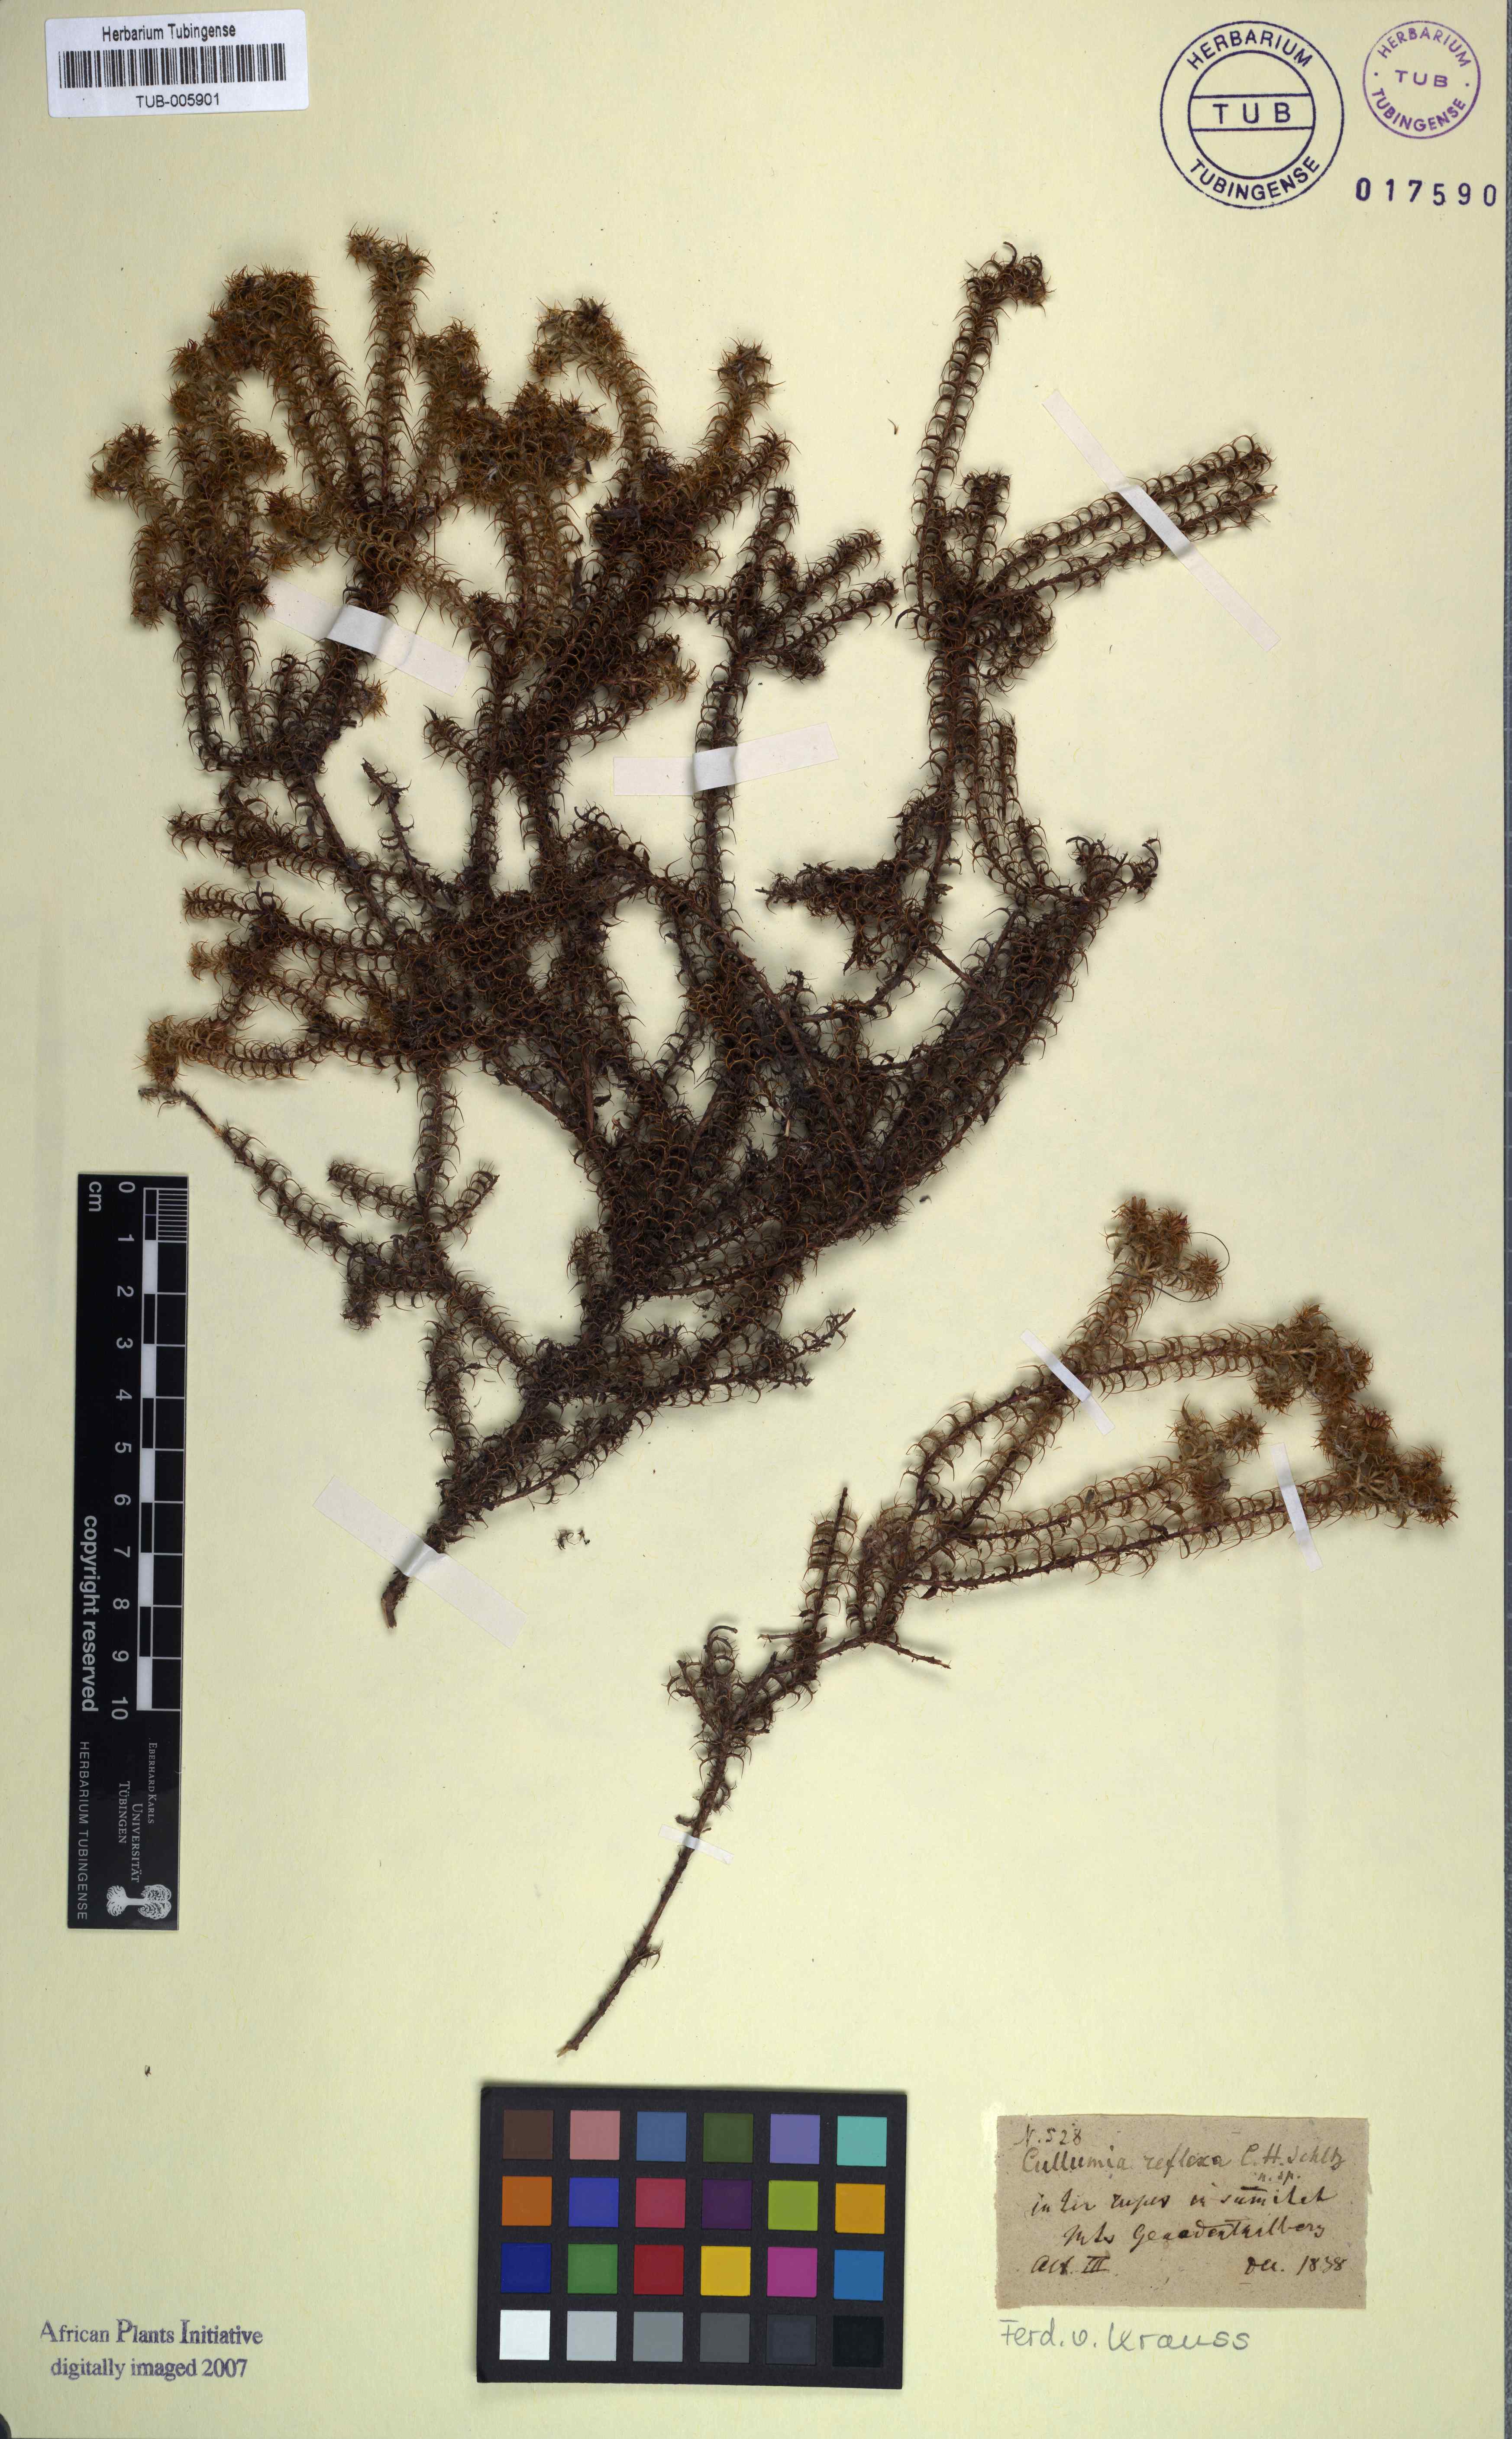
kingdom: Plantae
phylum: Tracheophyta
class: Magnoliopsida
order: Asterales
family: Asteraceae
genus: Cullumia
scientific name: Cullumia decurrens
